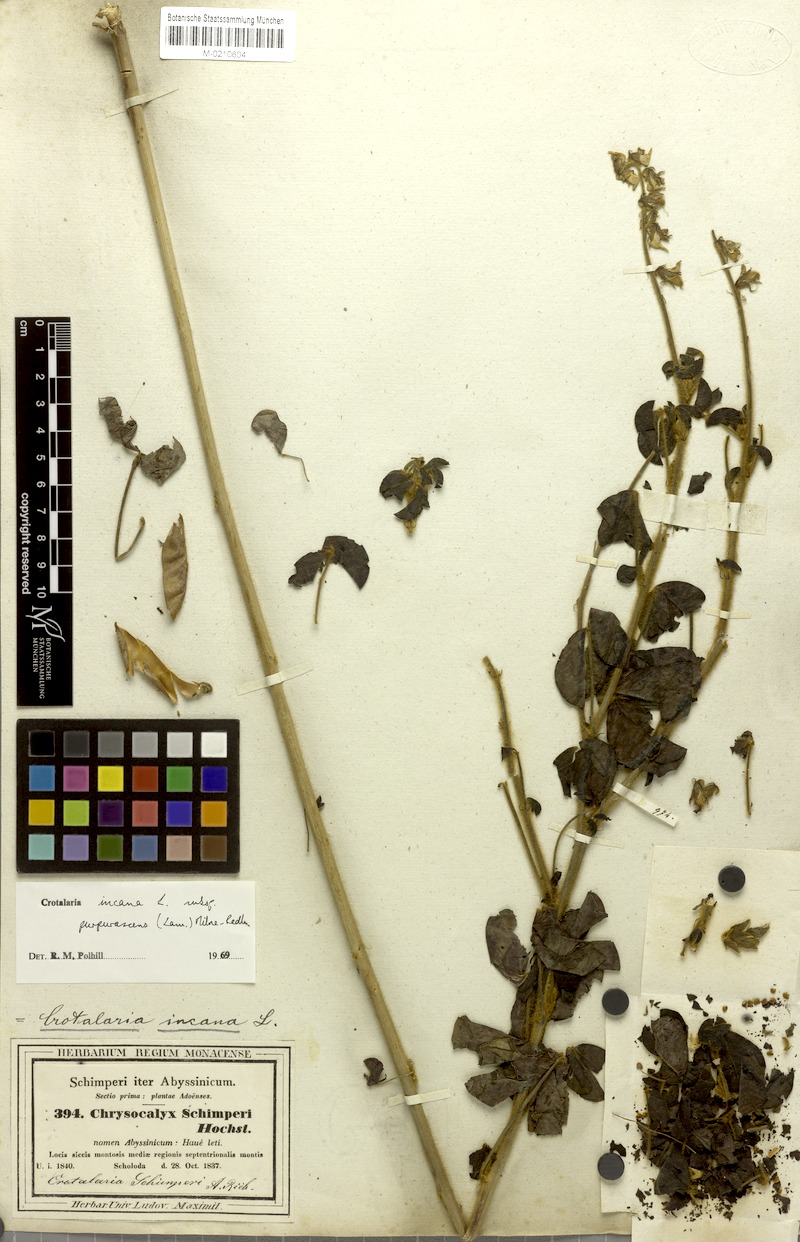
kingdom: Plantae
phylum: Tracheophyta
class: Magnoliopsida
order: Fabales
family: Fabaceae
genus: Crotalaria
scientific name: Crotalaria incana
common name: Shakeshake
